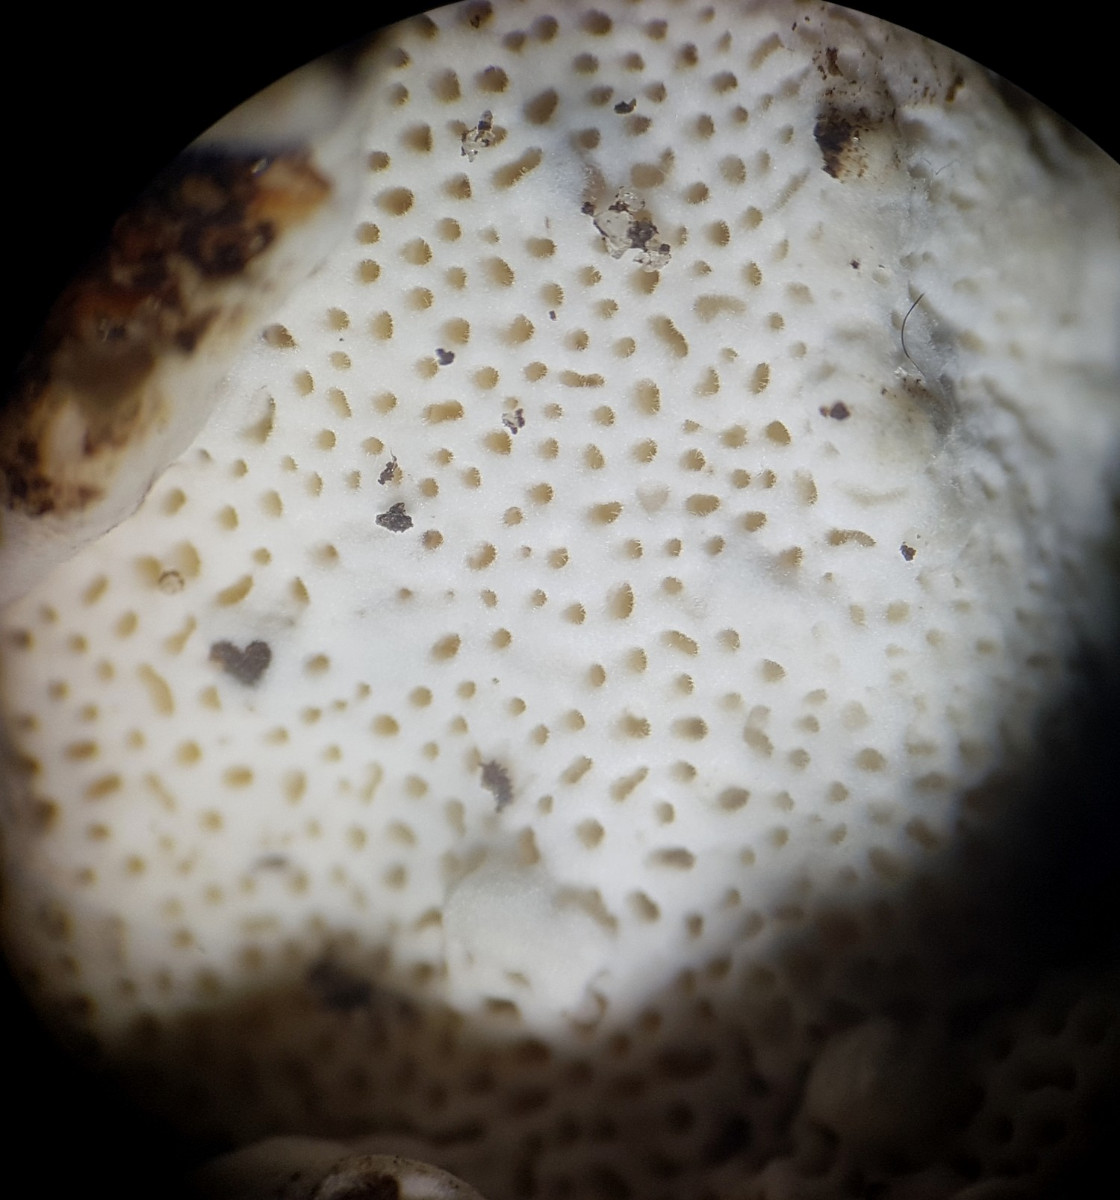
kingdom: Fungi
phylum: Basidiomycota
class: Agaricomycetes
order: Russulales
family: Bondarzewiaceae
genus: Heterobasidion
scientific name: Heterobasidion annosum
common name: almindelig rodfordærver
